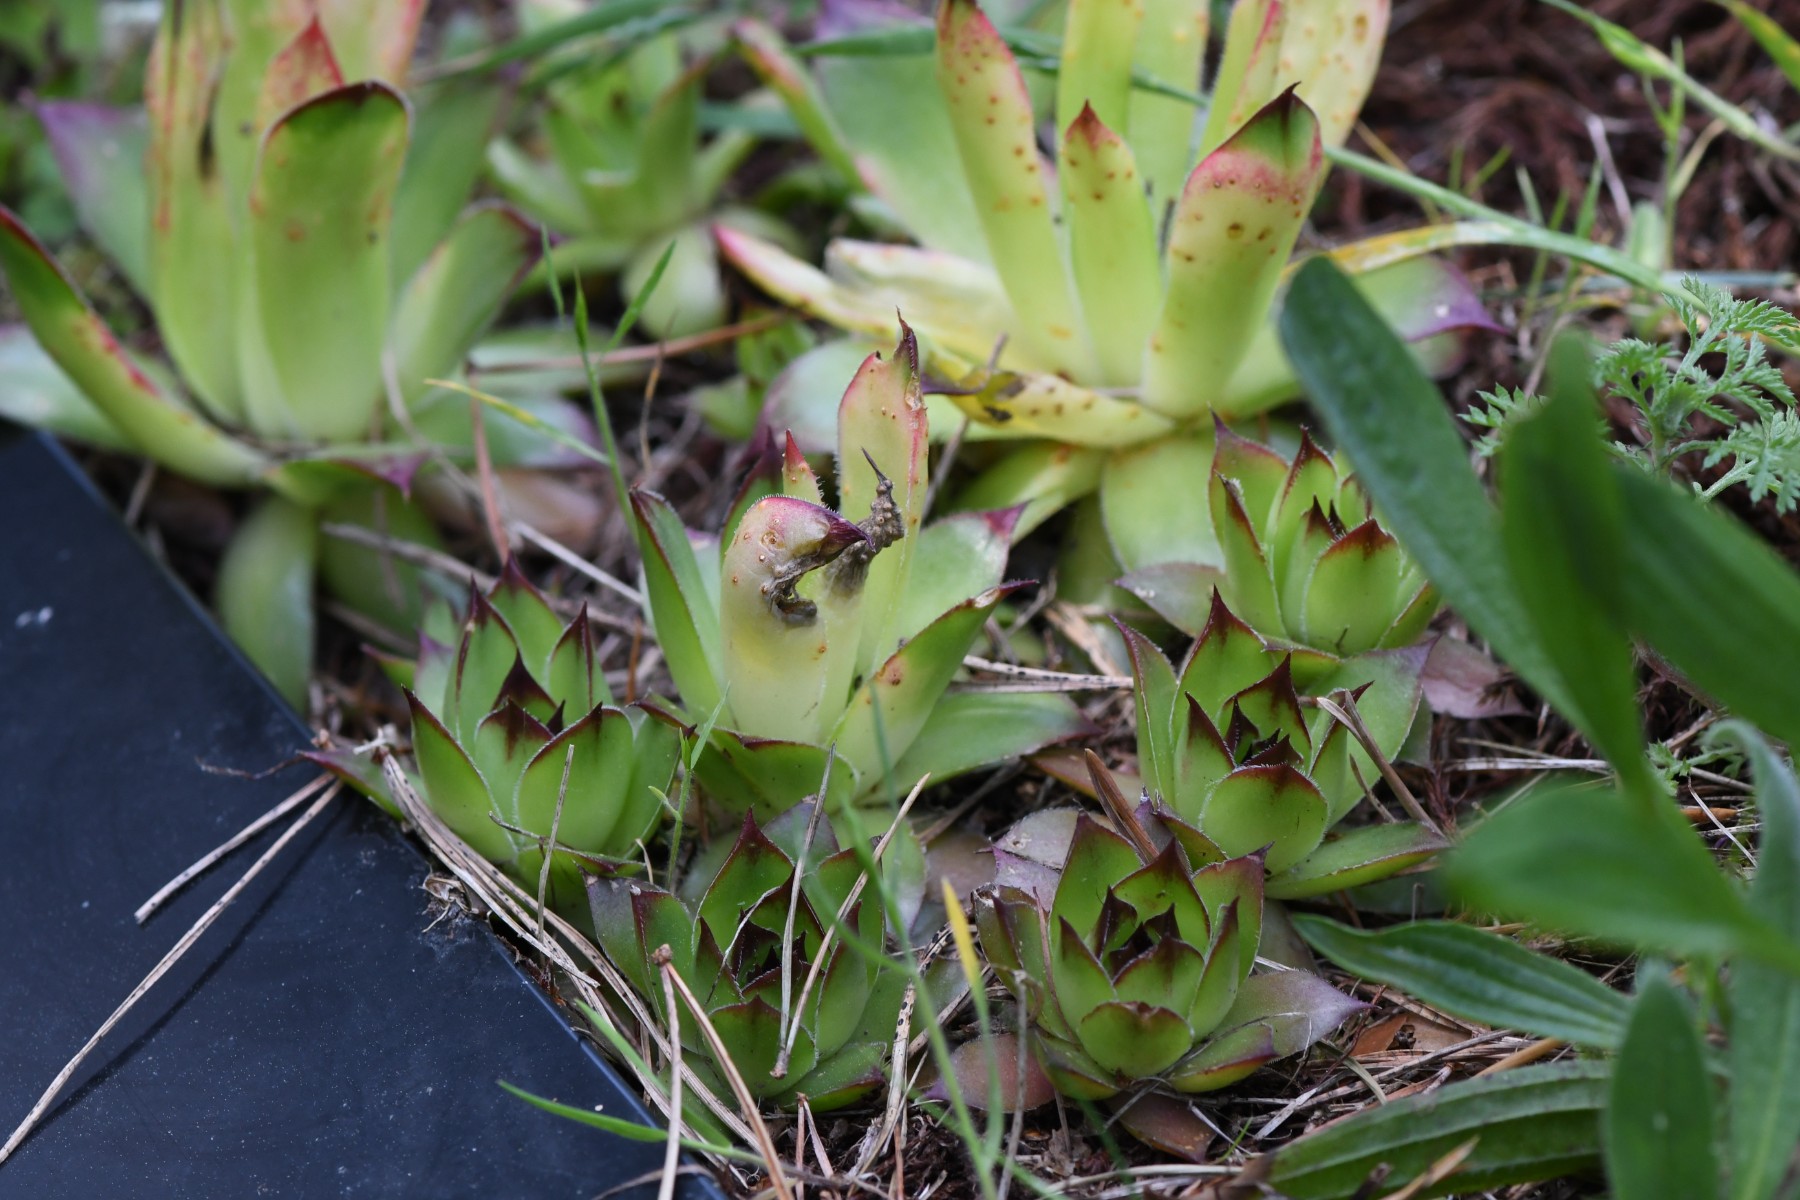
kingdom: Fungi
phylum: Basidiomycota
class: Pucciniomycetes
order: Pucciniales
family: Pucciniaceae
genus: Endophyllum
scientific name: Endophyllum sempervivi
